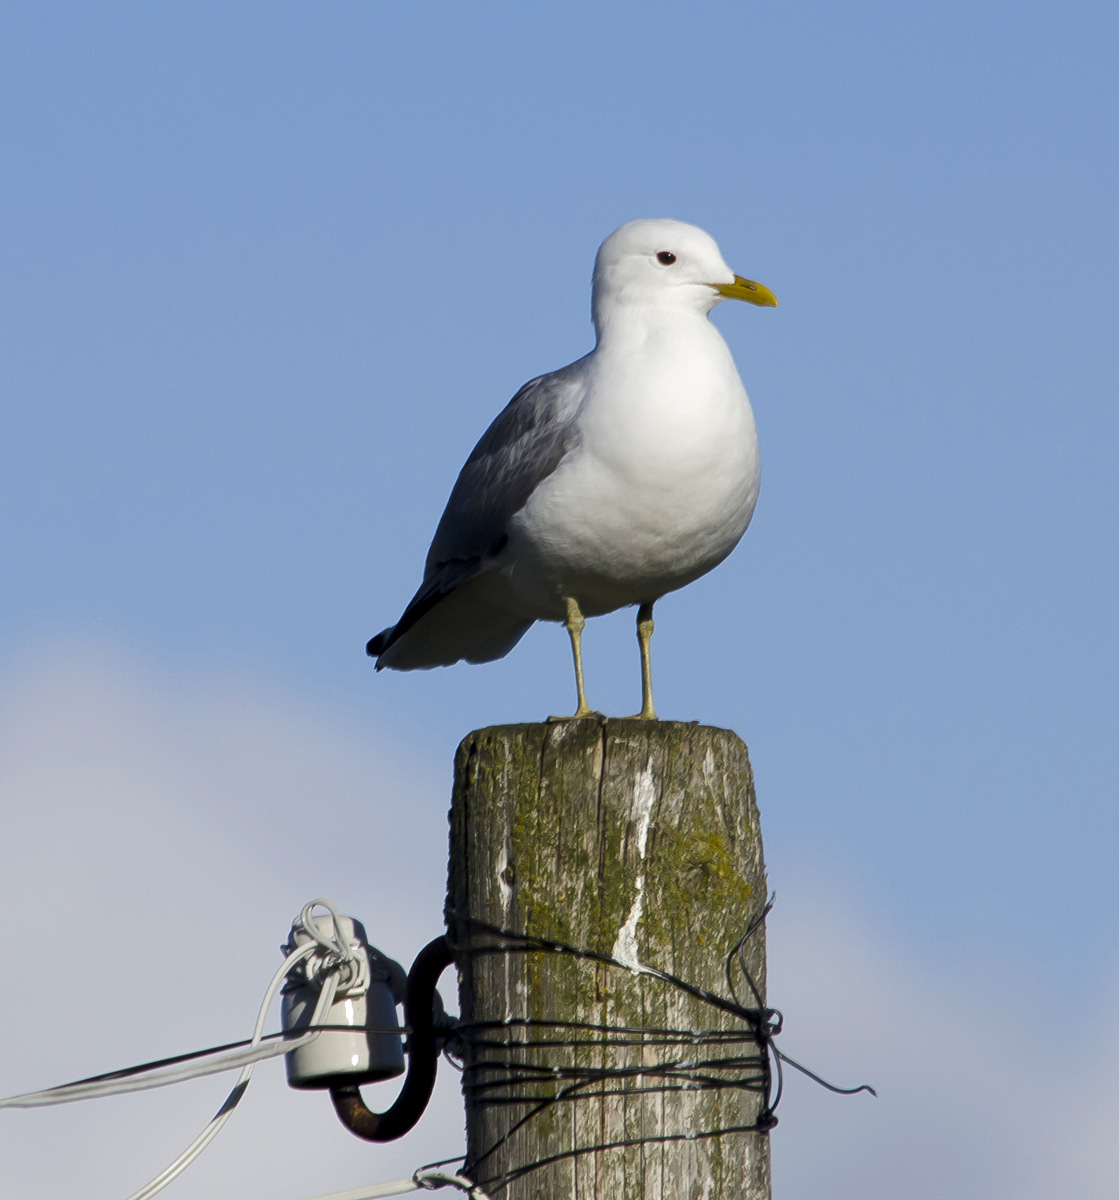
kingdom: Animalia
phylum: Chordata
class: Aves
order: Charadriiformes
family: Laridae
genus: Larus
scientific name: Larus canus
